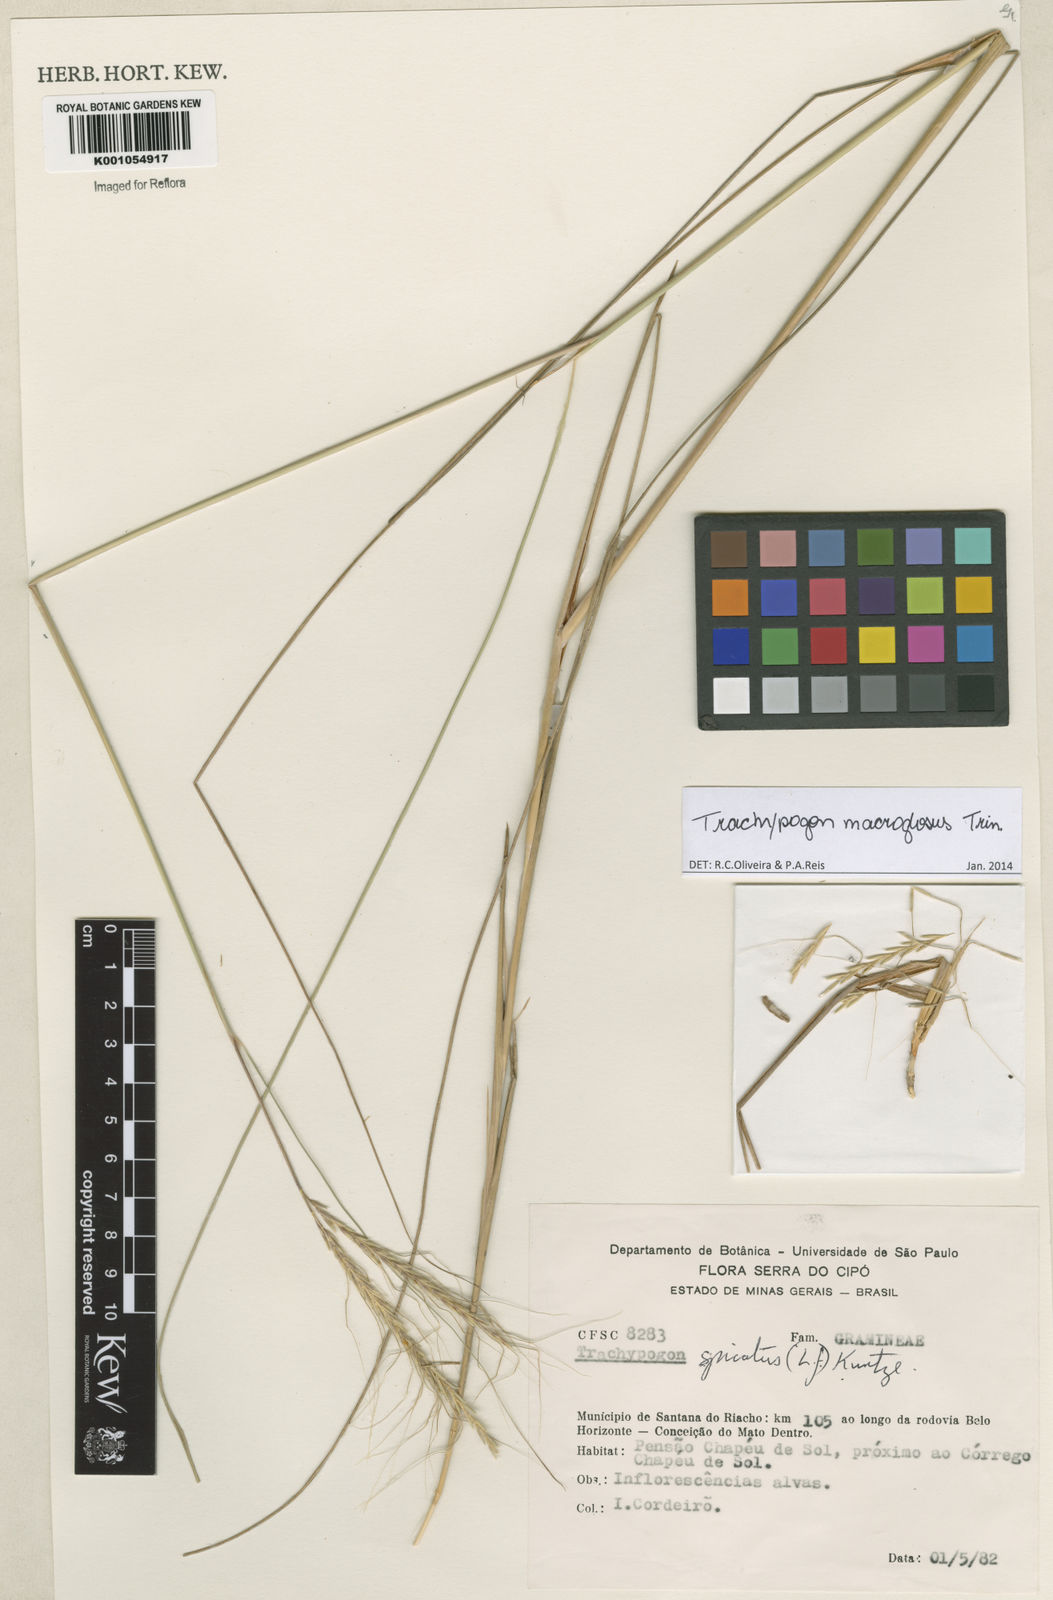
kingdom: Plantae
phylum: Tracheophyta
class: Liliopsida
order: Poales
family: Poaceae
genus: Trachypogon
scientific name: Trachypogon macroglossus
